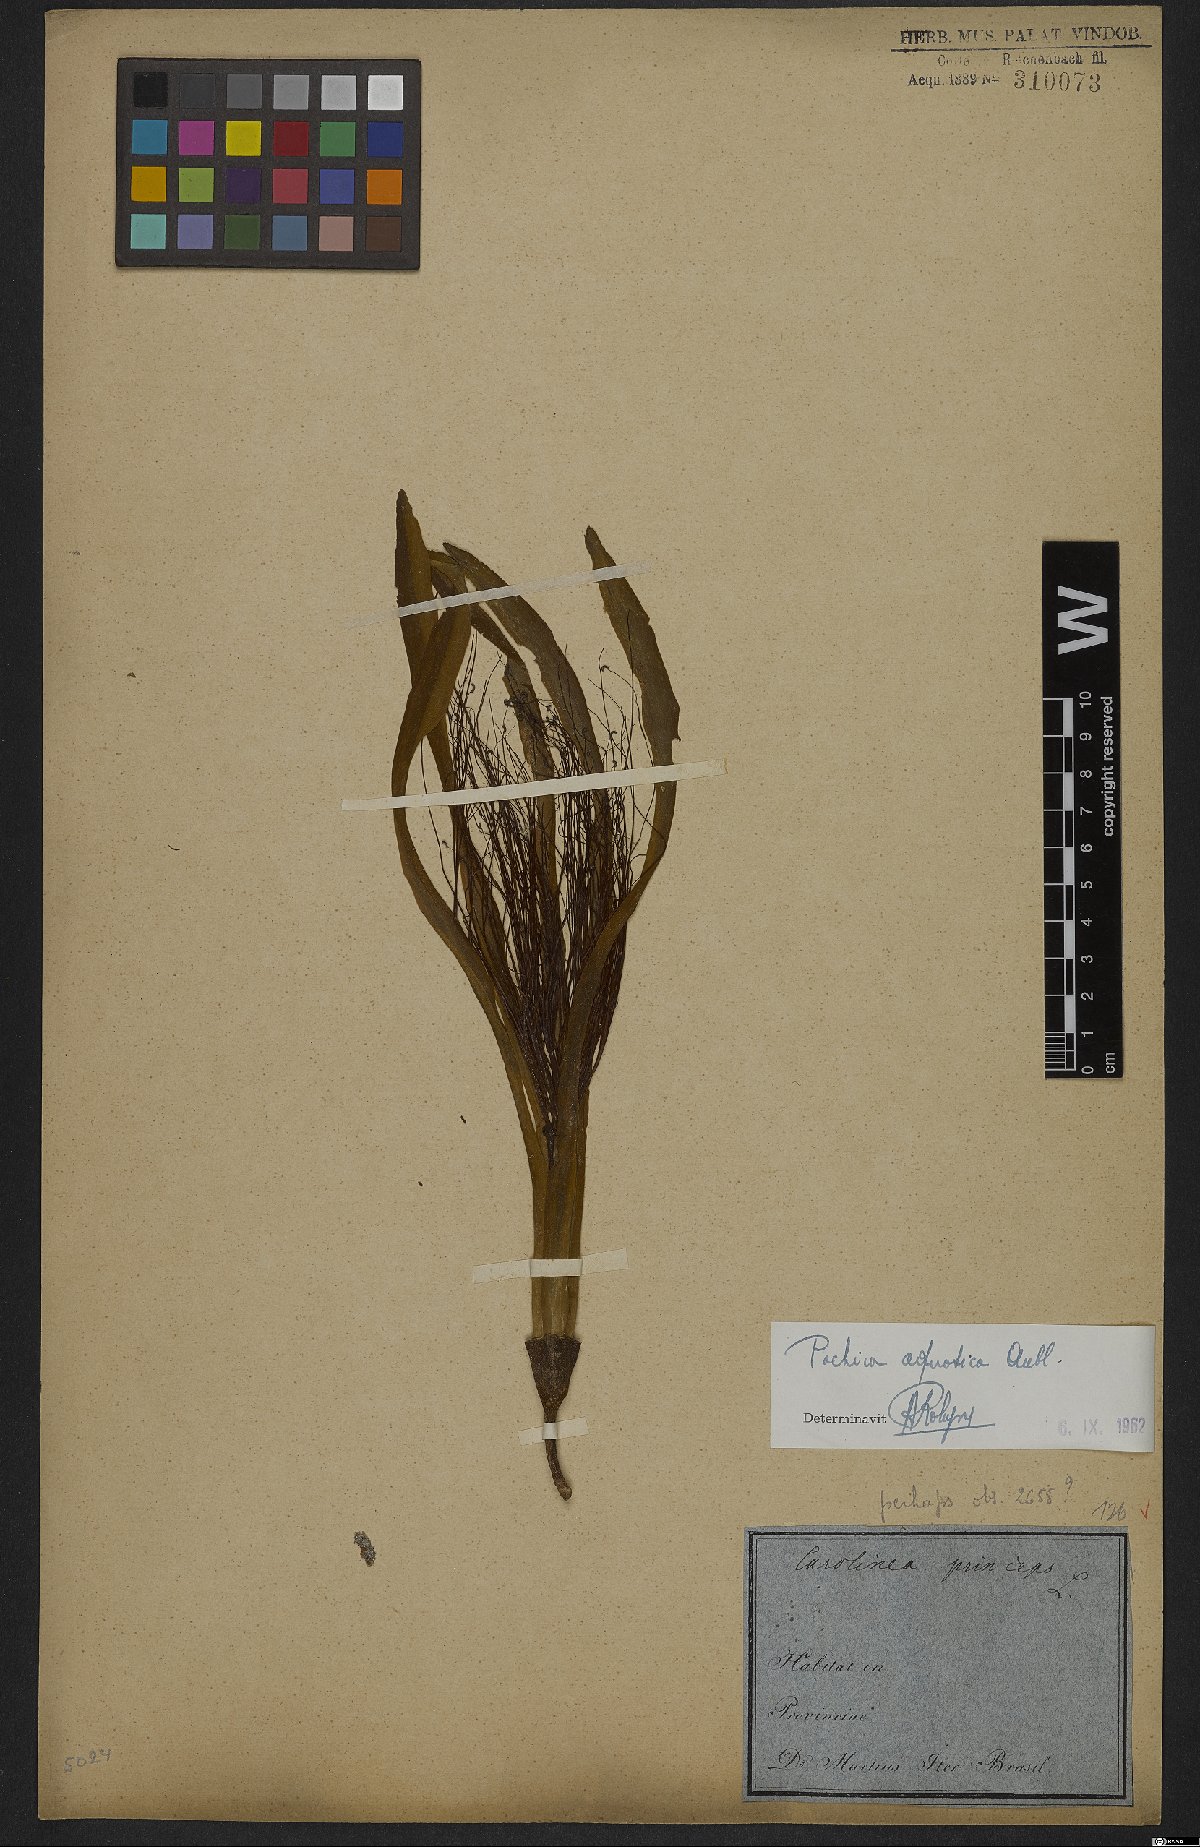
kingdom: Plantae
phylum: Tracheophyta
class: Magnoliopsida
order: Malvales
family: Malvaceae
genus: Pachira
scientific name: Pachira aquatica
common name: Provision-tree
